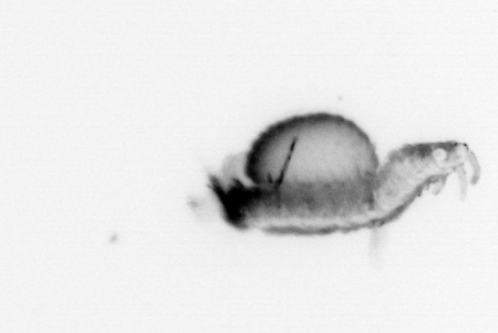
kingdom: Animalia
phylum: Annelida
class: Polychaeta
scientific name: Polychaeta
